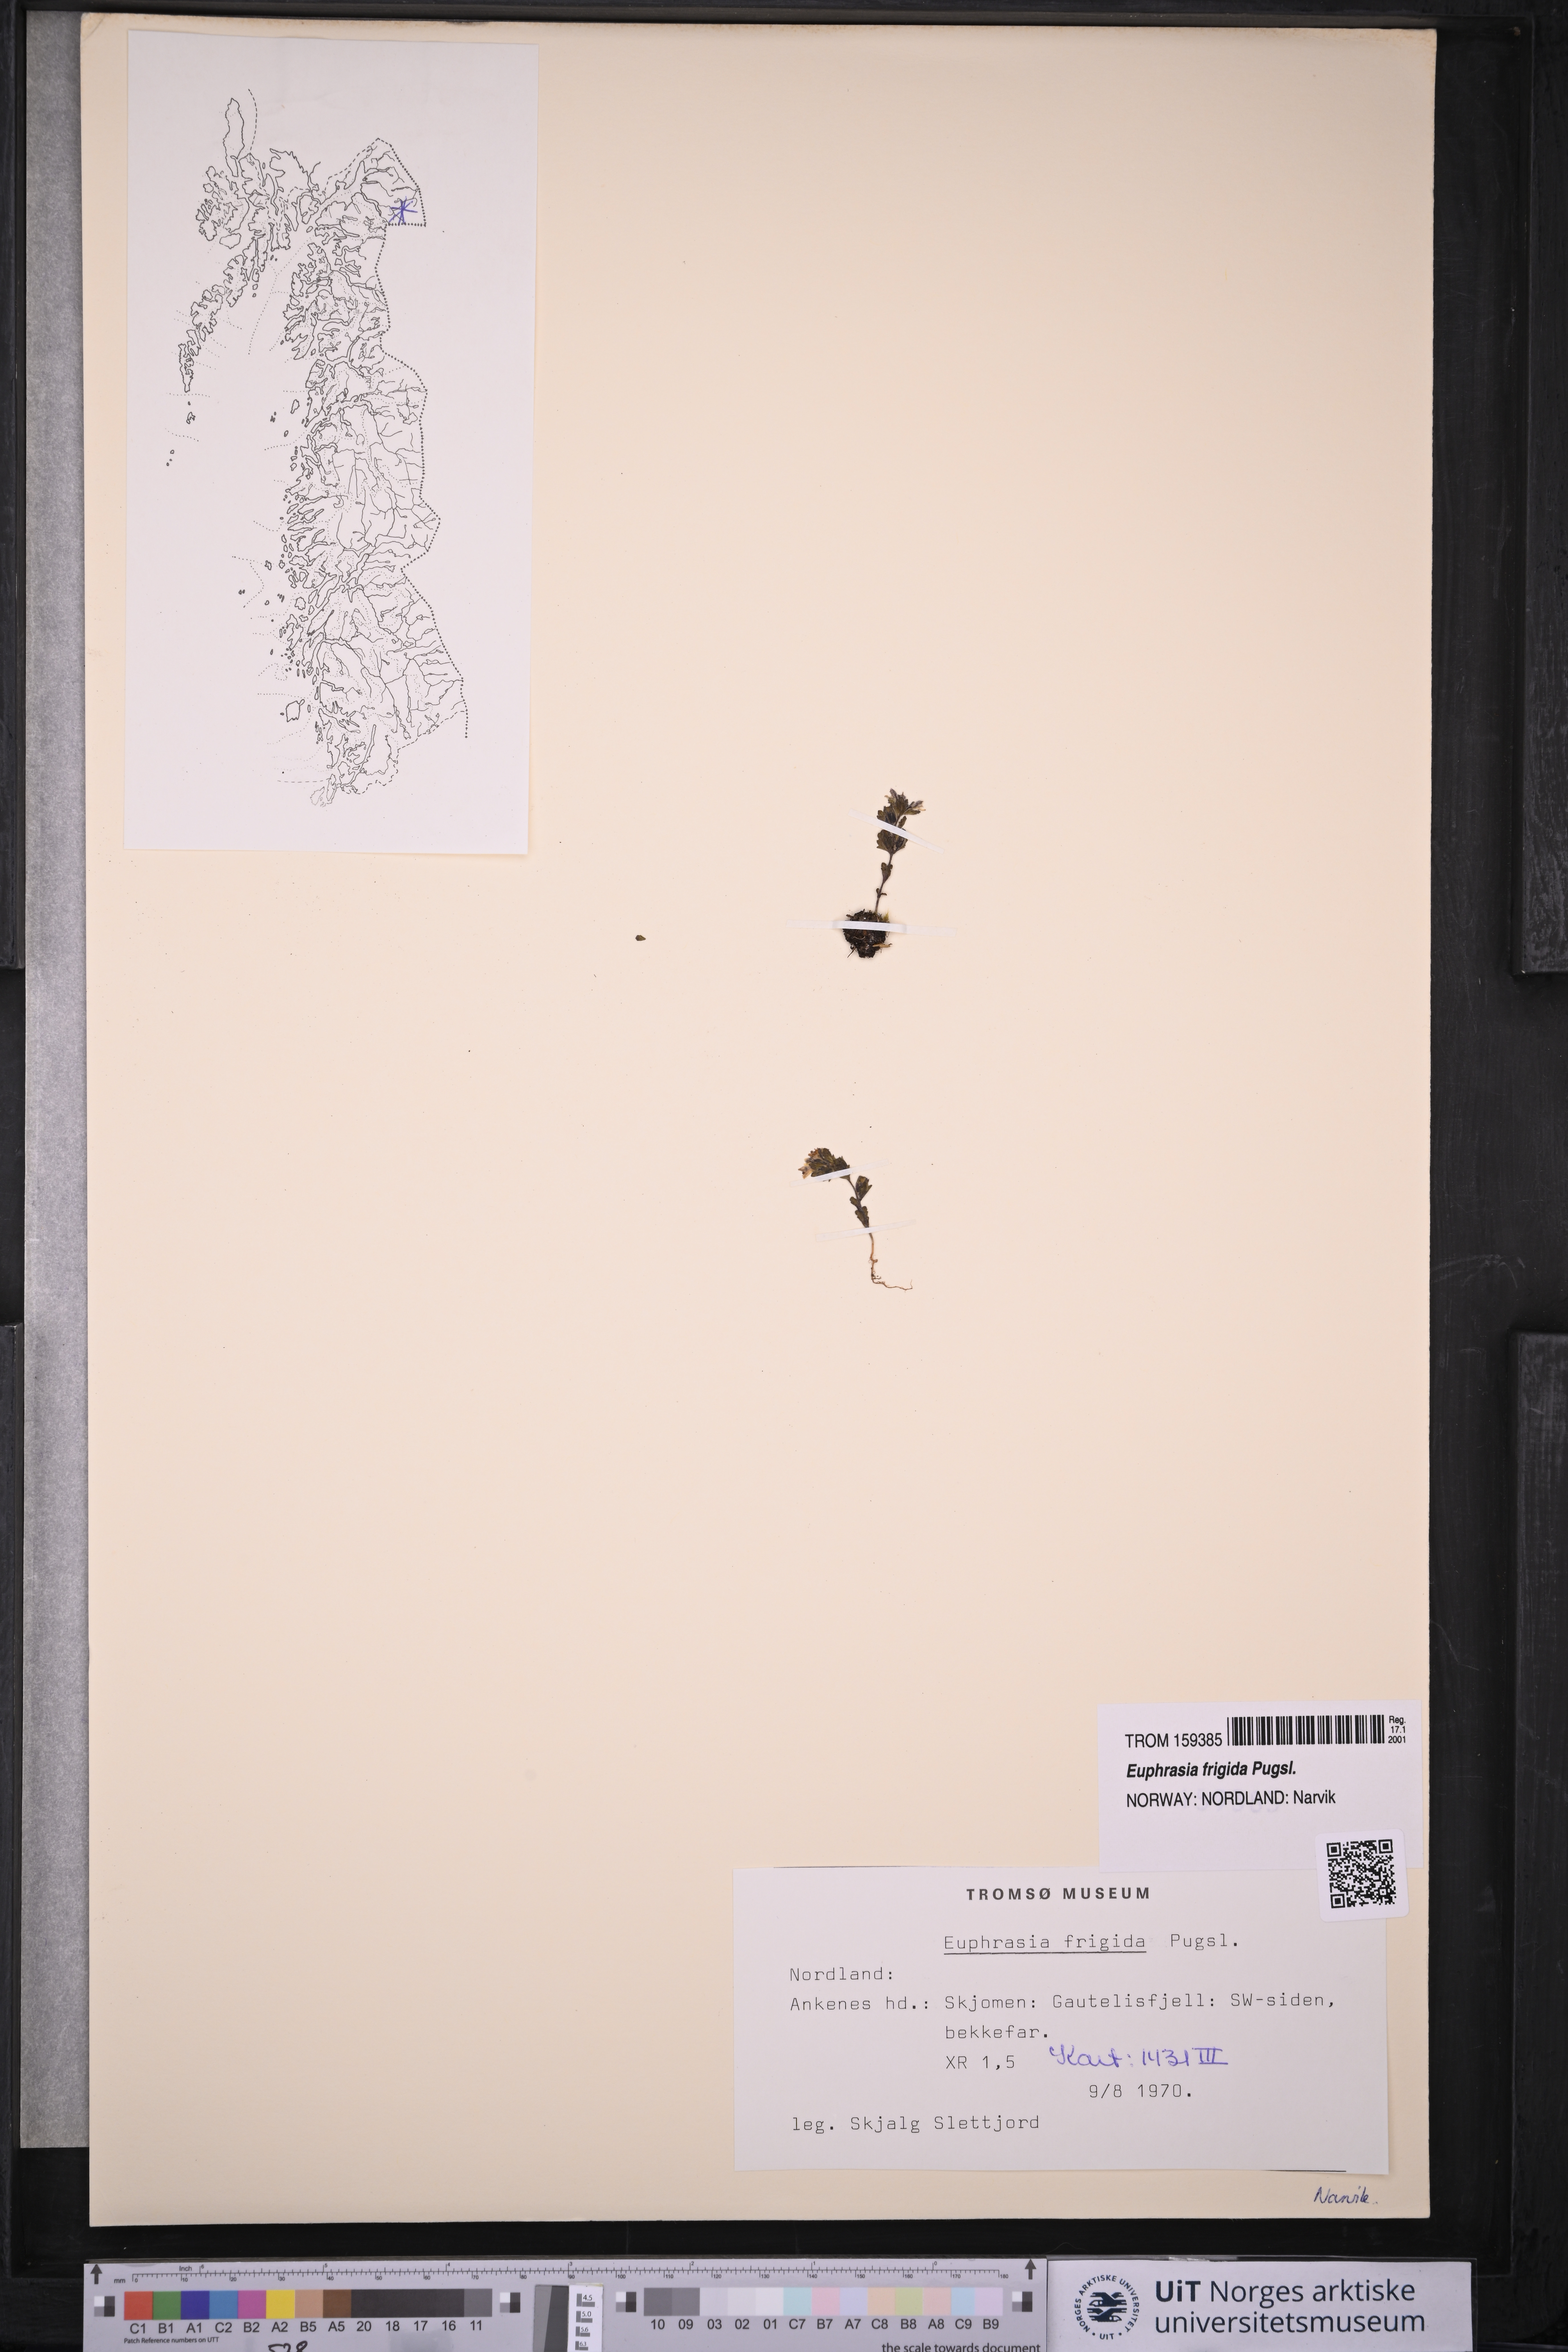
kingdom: Plantae
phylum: Tracheophyta
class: Magnoliopsida
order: Lamiales
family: Orobanchaceae
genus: Euphrasia
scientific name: Euphrasia frigida
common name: An eyebright
